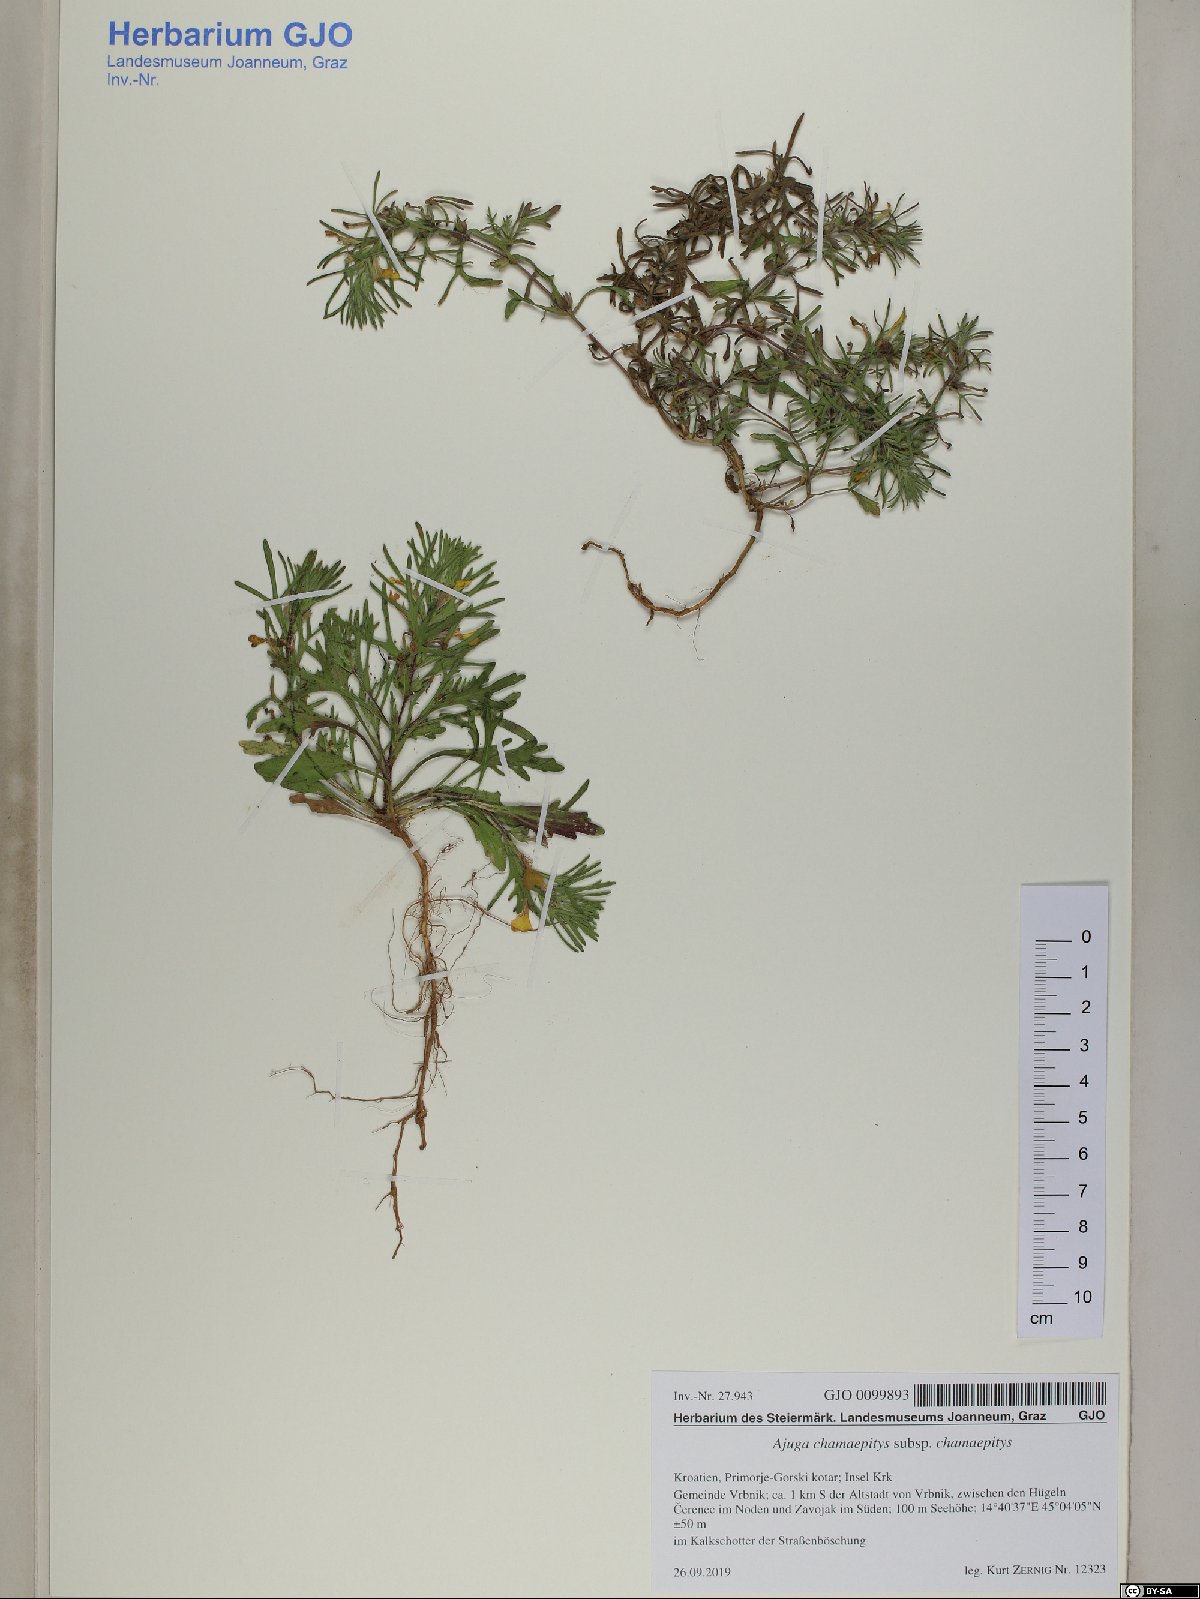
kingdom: Plantae
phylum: Tracheophyta
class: Magnoliopsida
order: Lamiales
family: Lamiaceae
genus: Ajuga
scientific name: Ajuga chamaepitys
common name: Ground-pine
